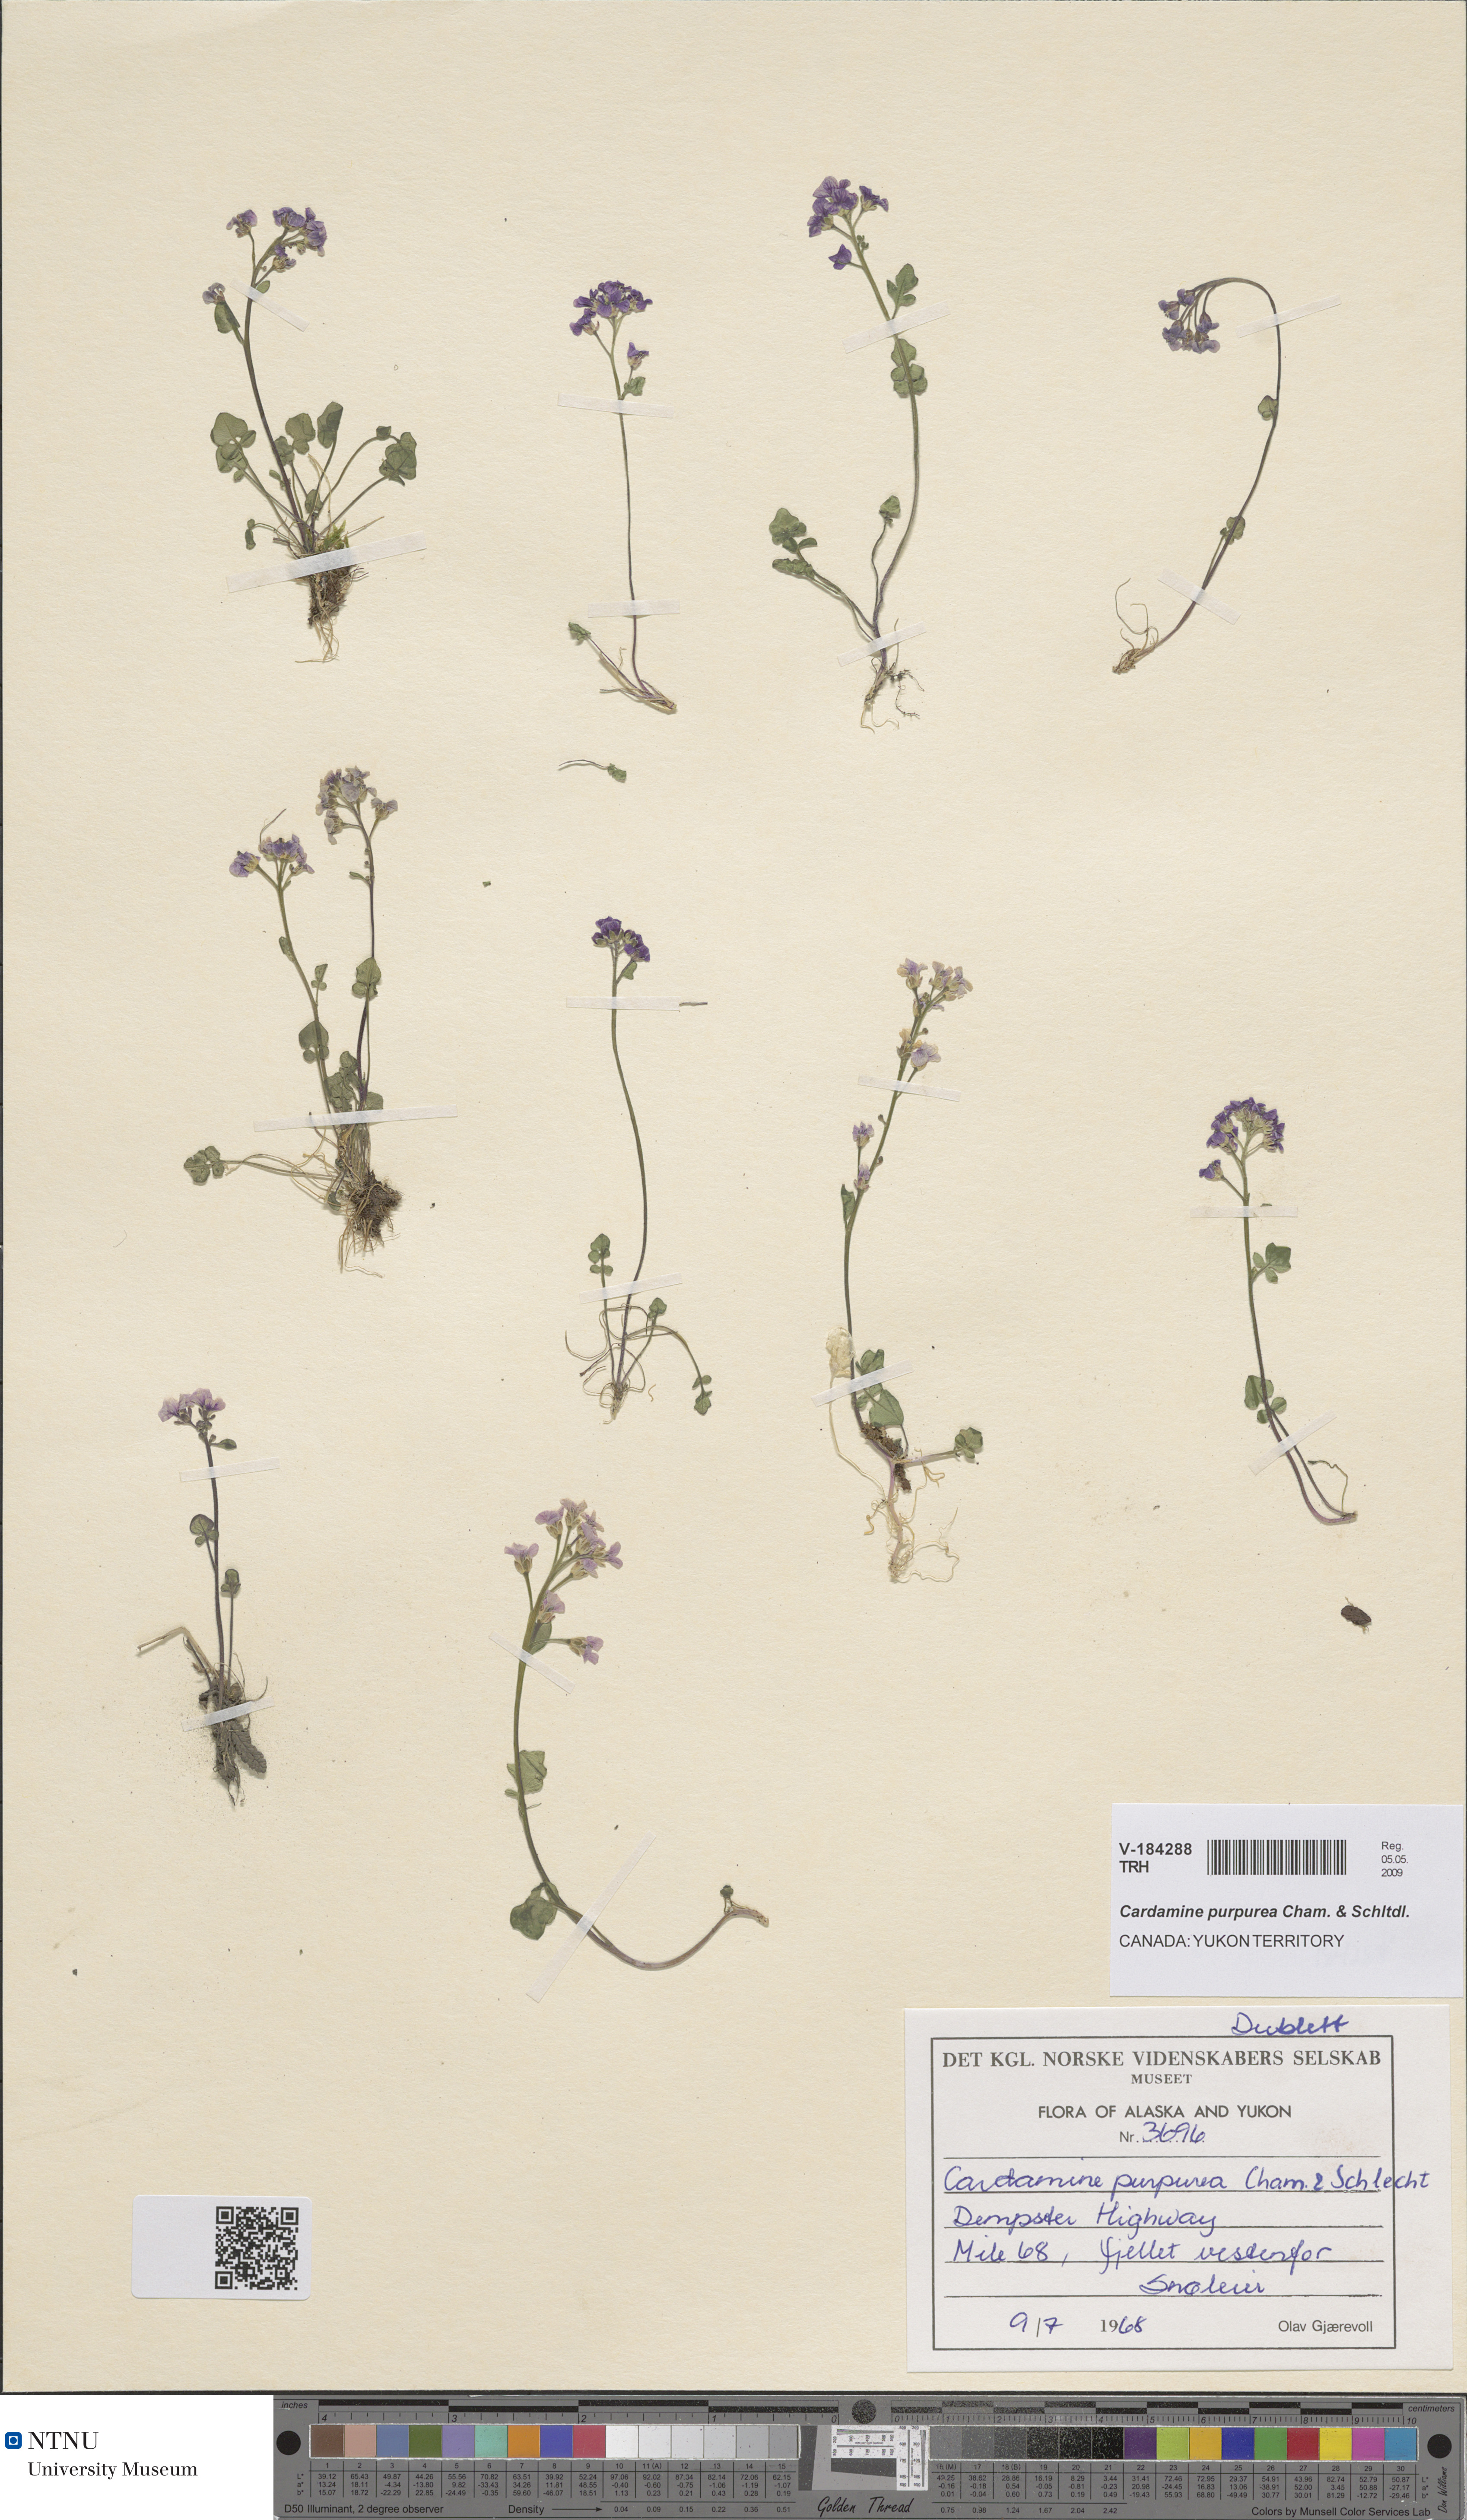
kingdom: Plantae
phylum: Tracheophyta
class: Magnoliopsida
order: Brassicales
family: Brassicaceae
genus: Cardamine
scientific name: Cardamine purpurea
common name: Purple bittercress
